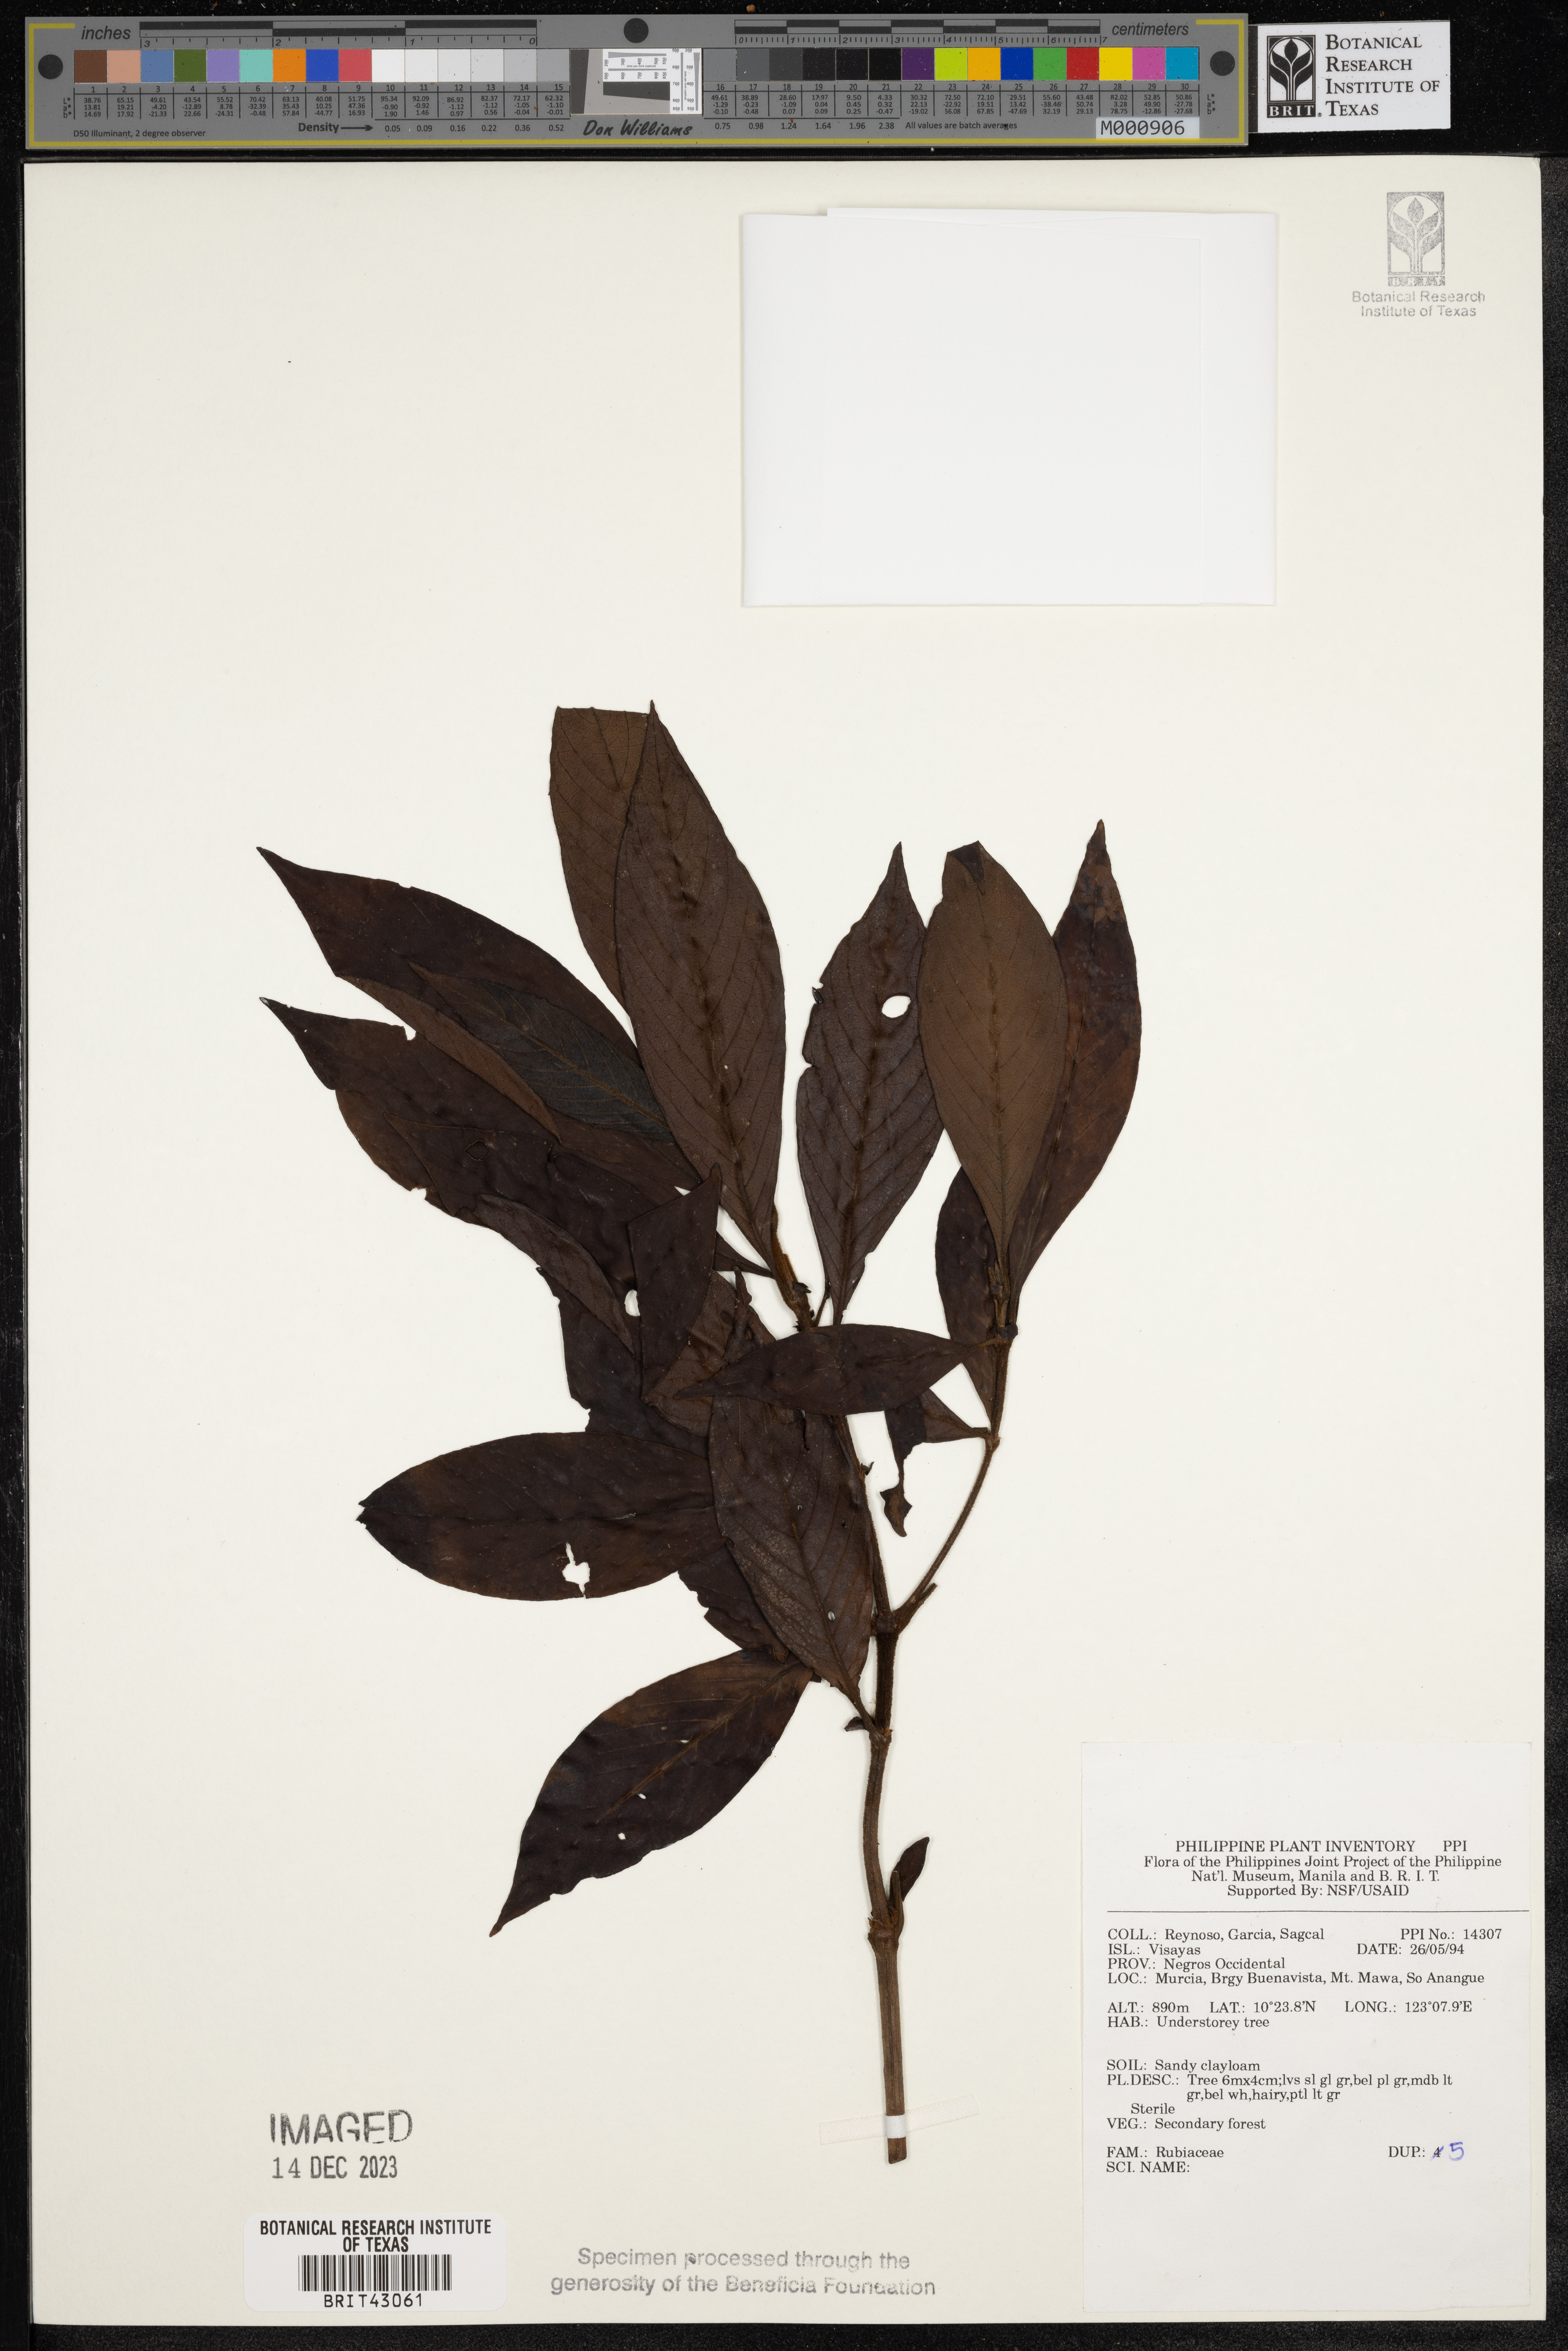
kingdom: Plantae
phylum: Tracheophyta
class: Magnoliopsida
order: Gentianales
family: Rubiaceae
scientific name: Rubiaceae
